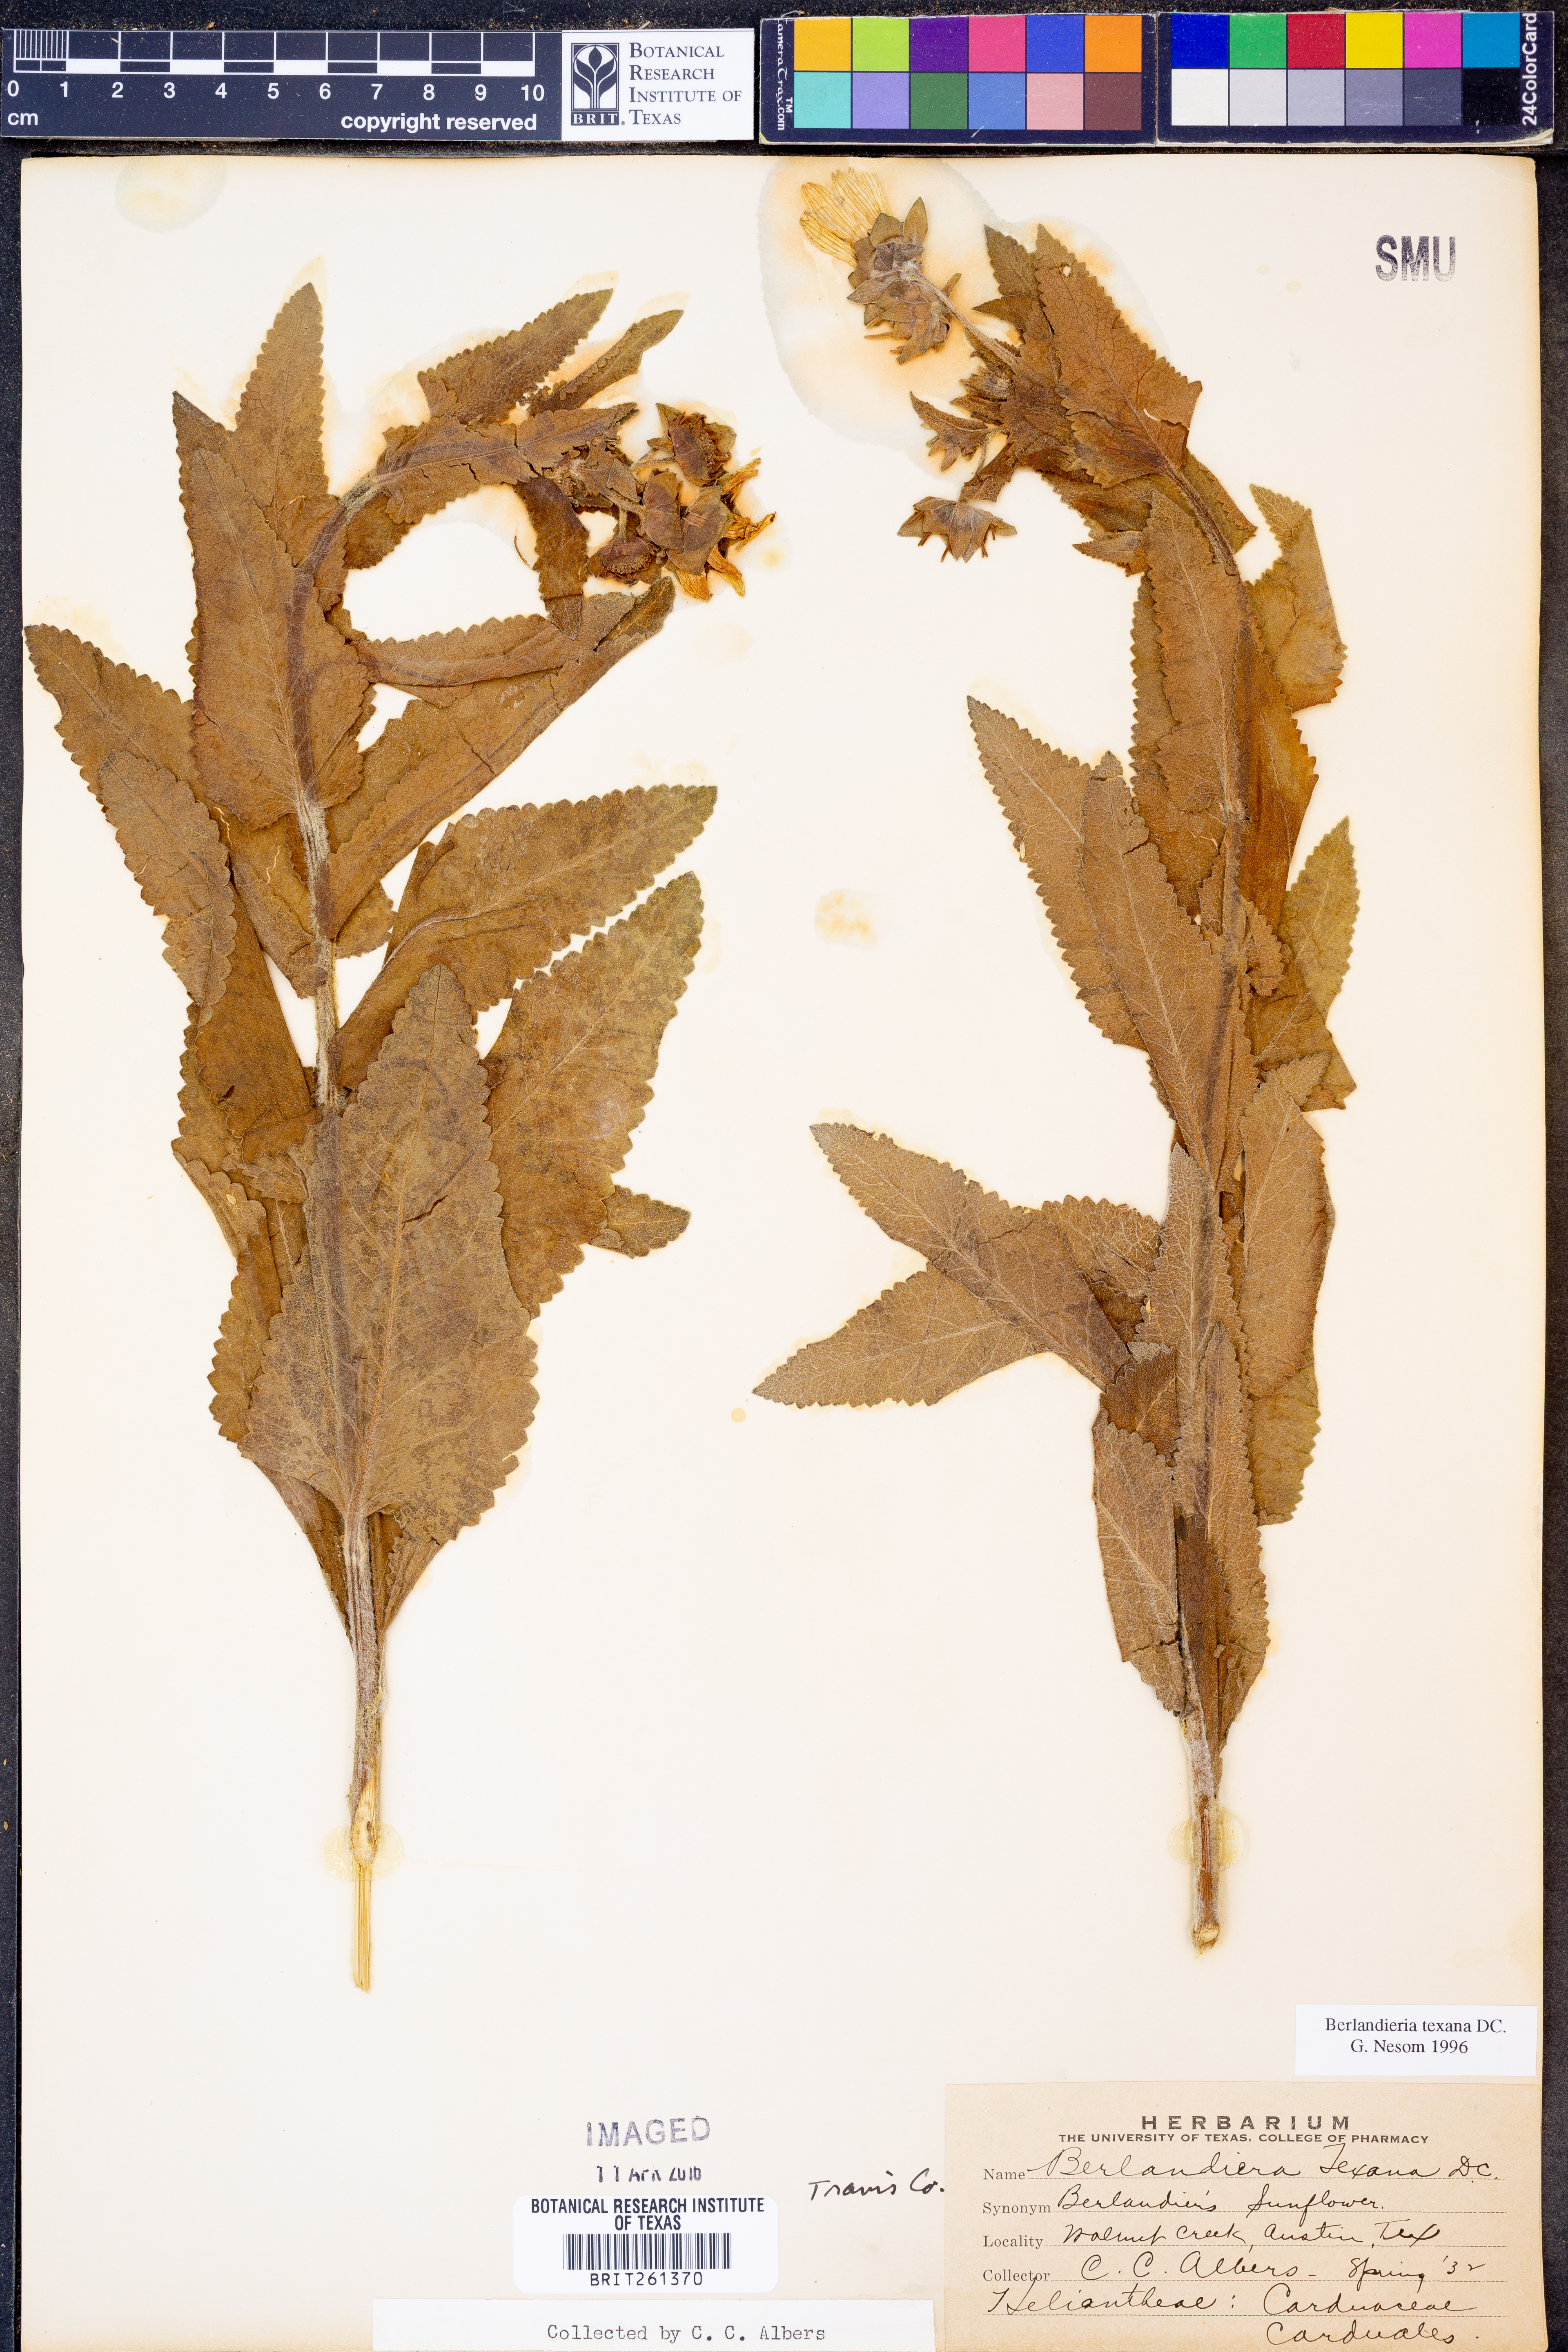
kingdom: Plantae
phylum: Tracheophyta
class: Magnoliopsida
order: Asterales
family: Asteraceae
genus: Berlandiera
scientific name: Berlandiera texana
